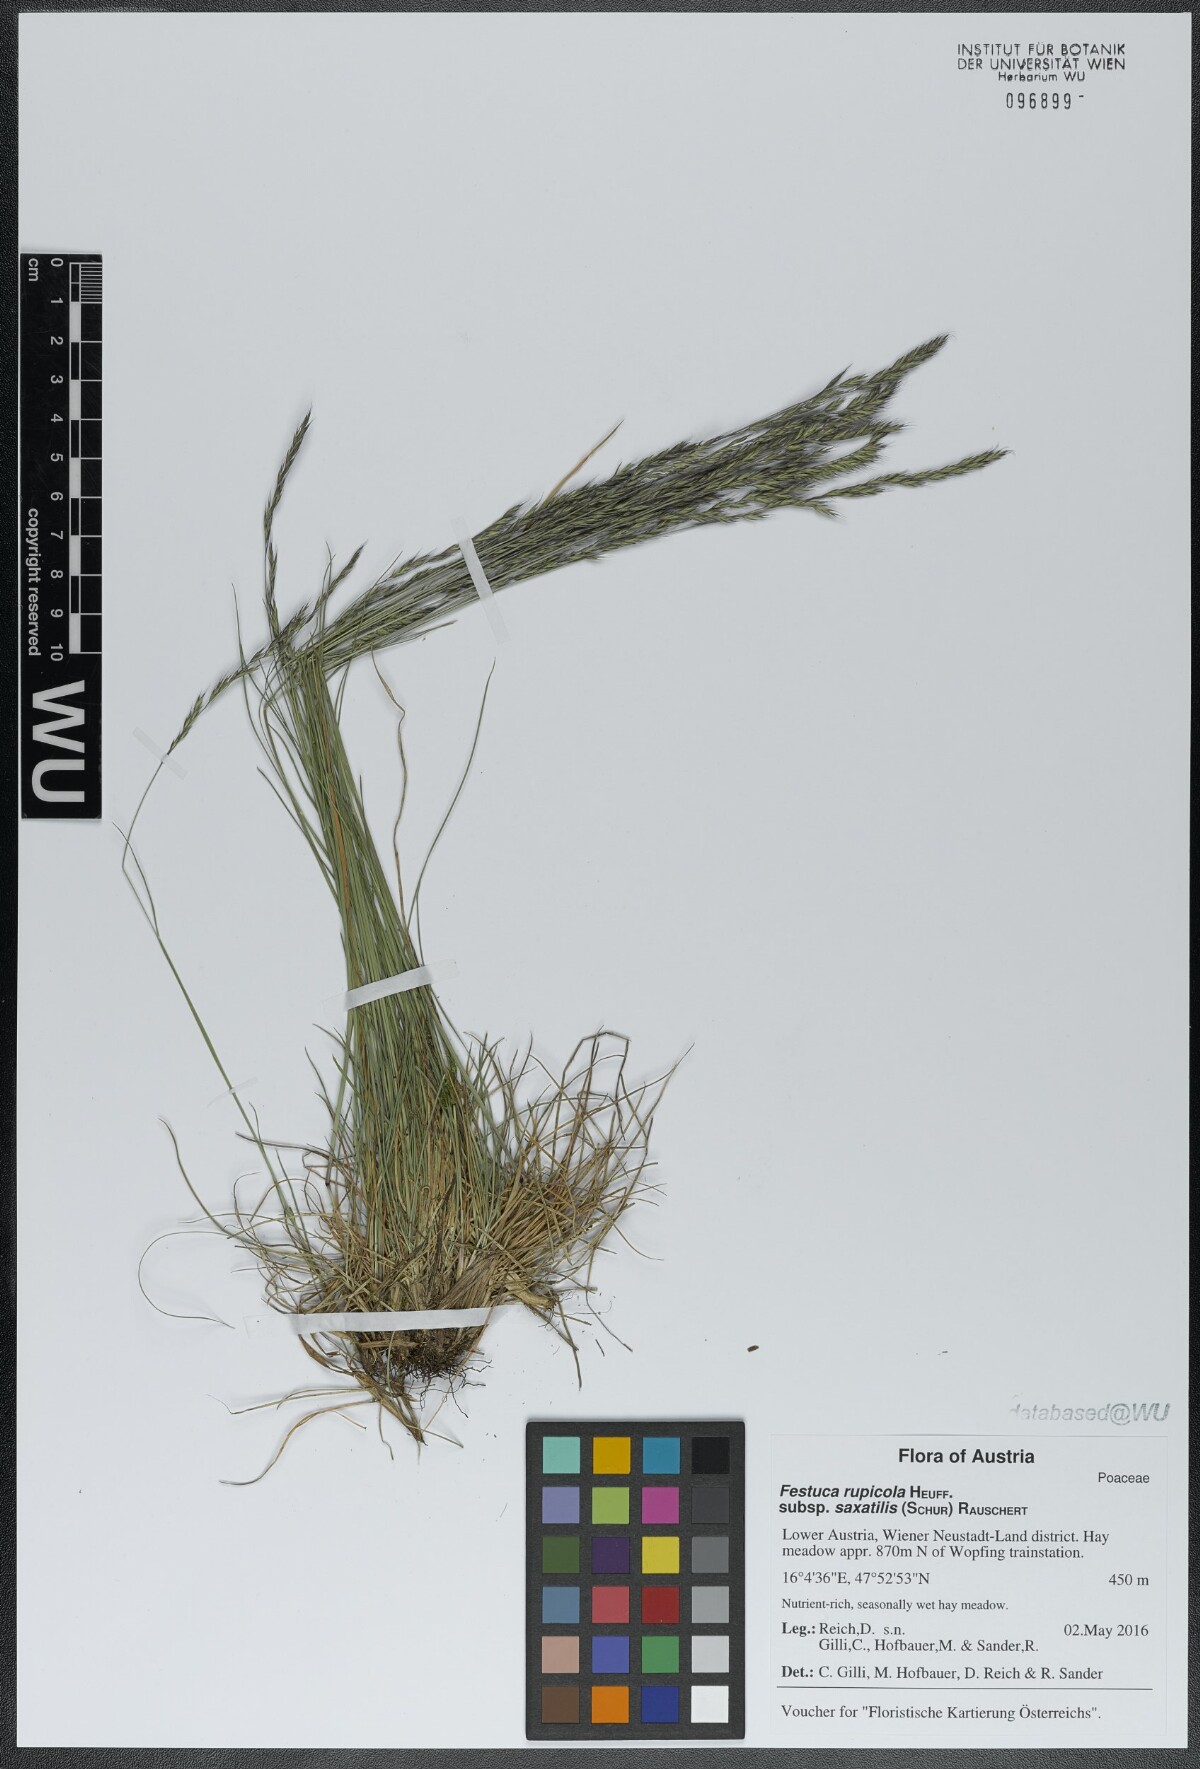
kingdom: Plantae
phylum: Tracheophyta
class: Liliopsida
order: Poales
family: Poaceae
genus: Festuca
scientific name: Festuca saxatilis
